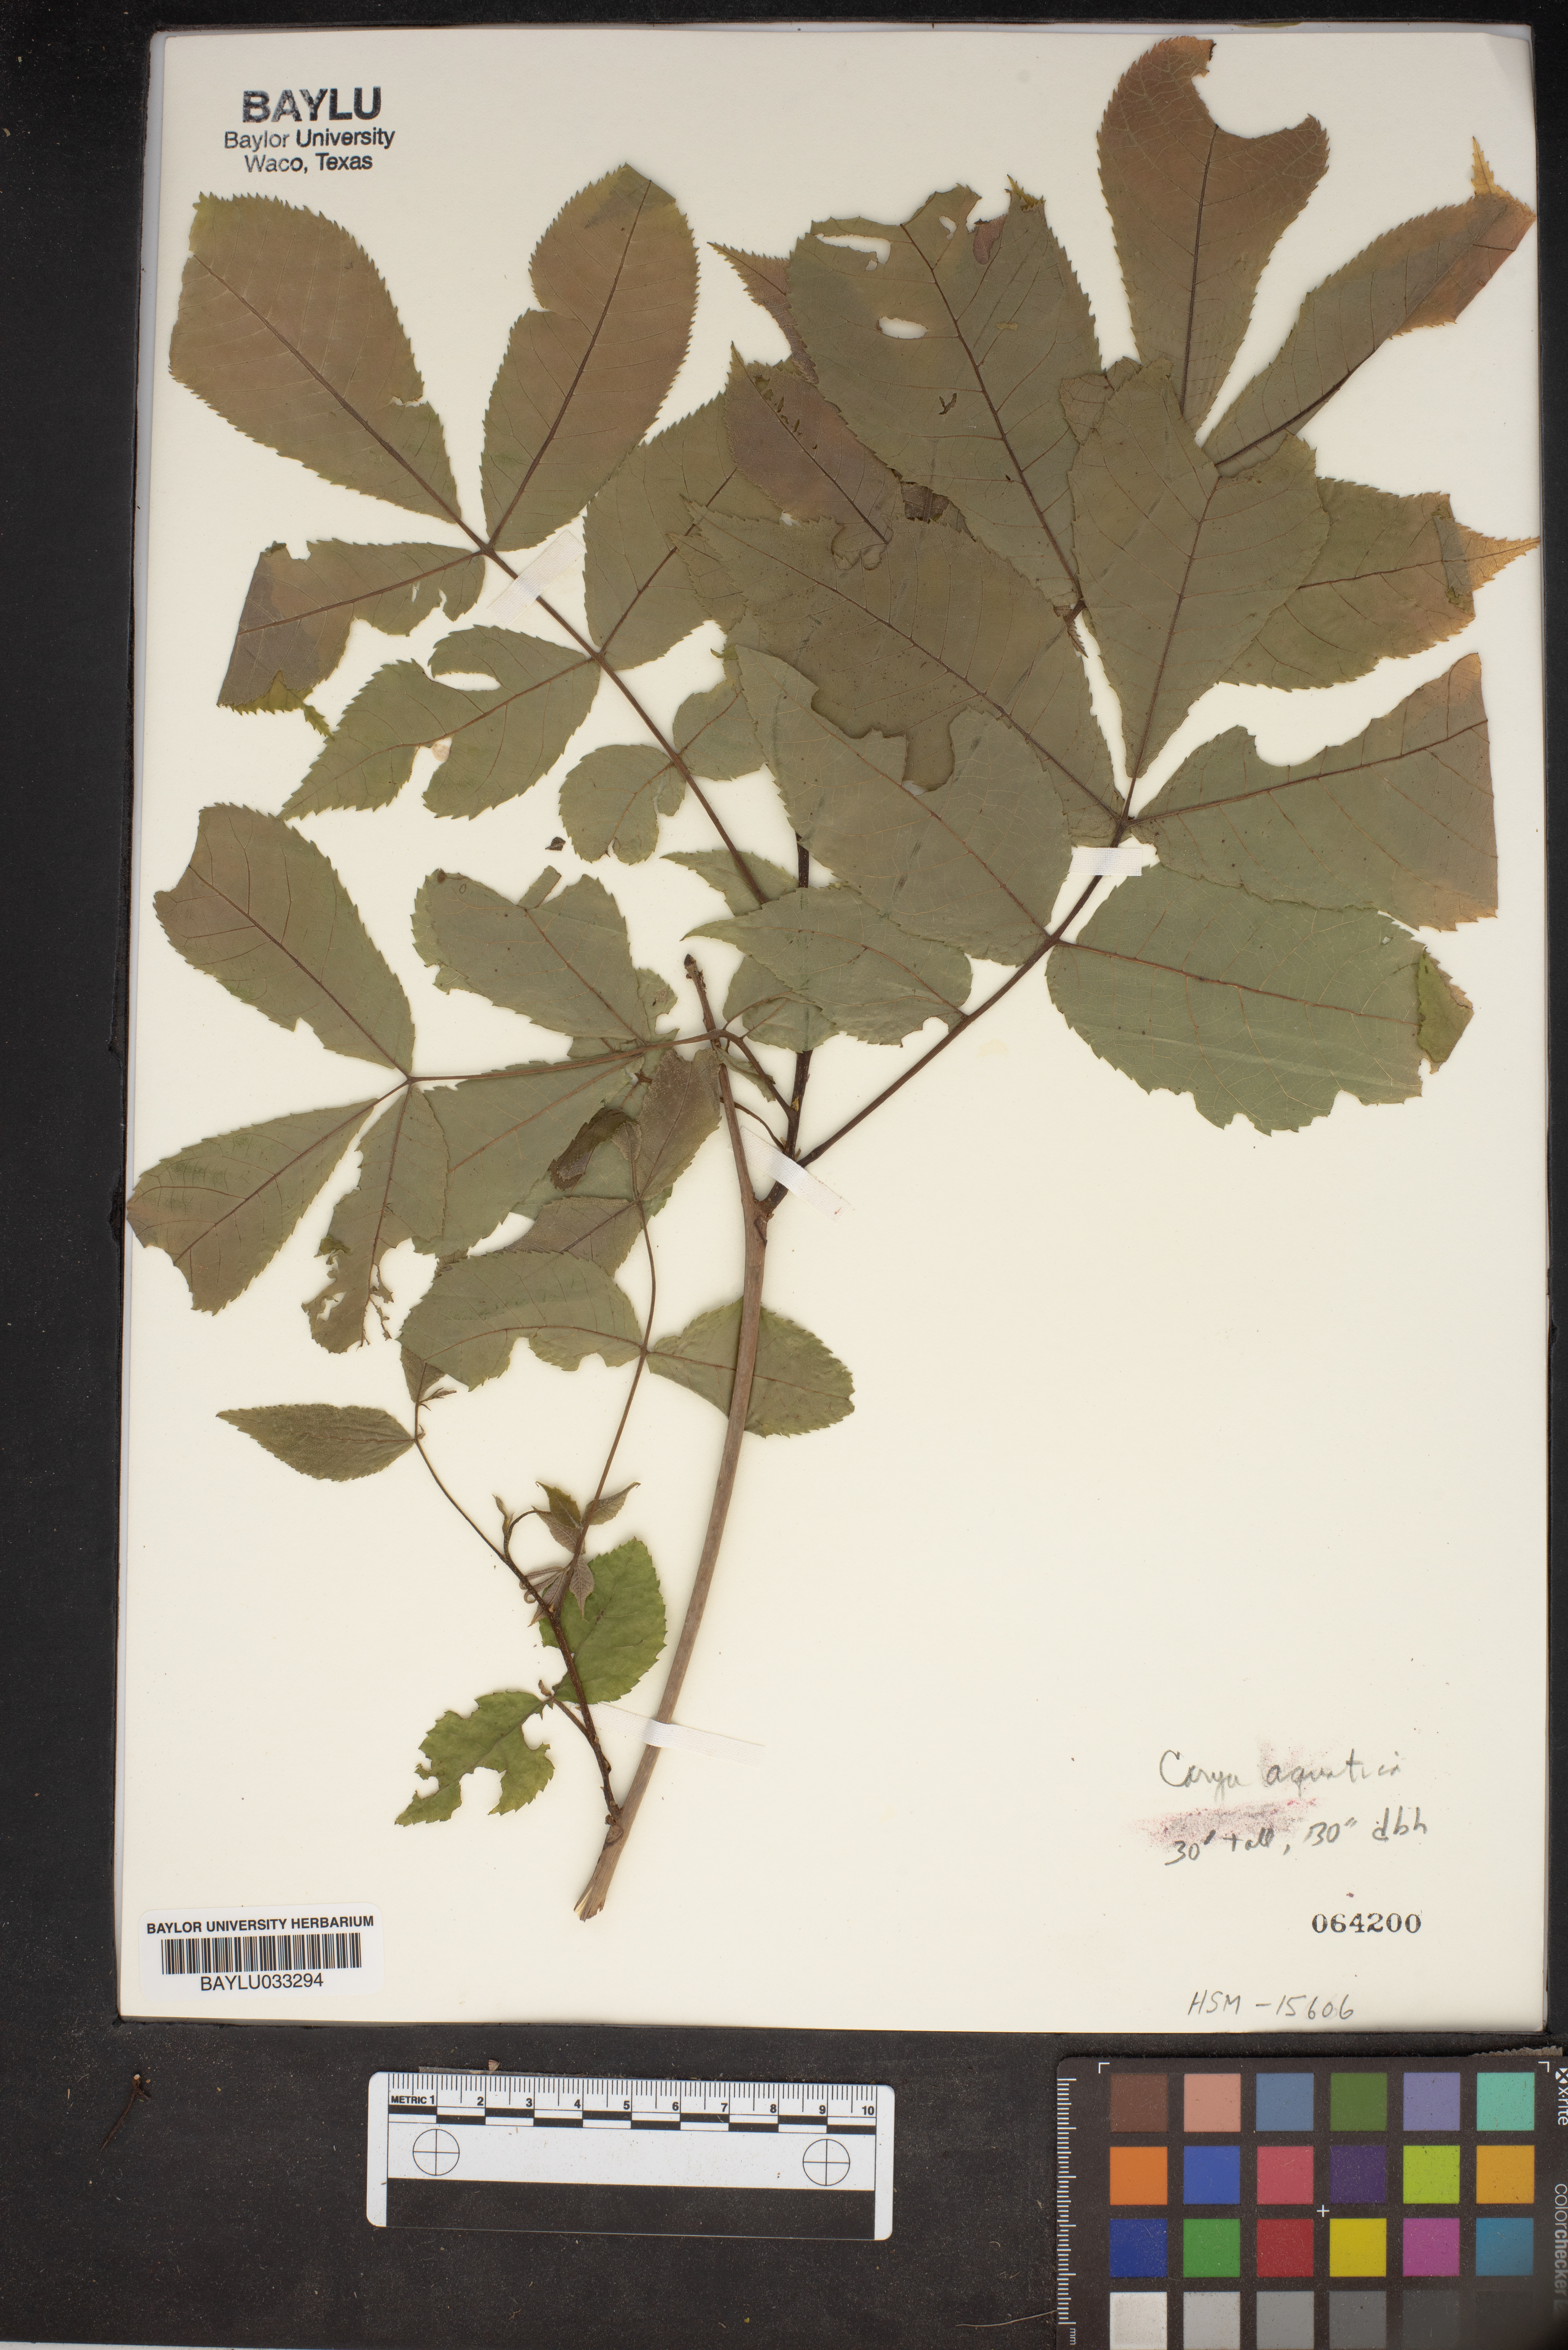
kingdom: Plantae
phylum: Tracheophyta
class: Magnoliopsida
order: Fagales
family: Juglandaceae
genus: Carya
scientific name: Carya aquatica
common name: Water hickory
